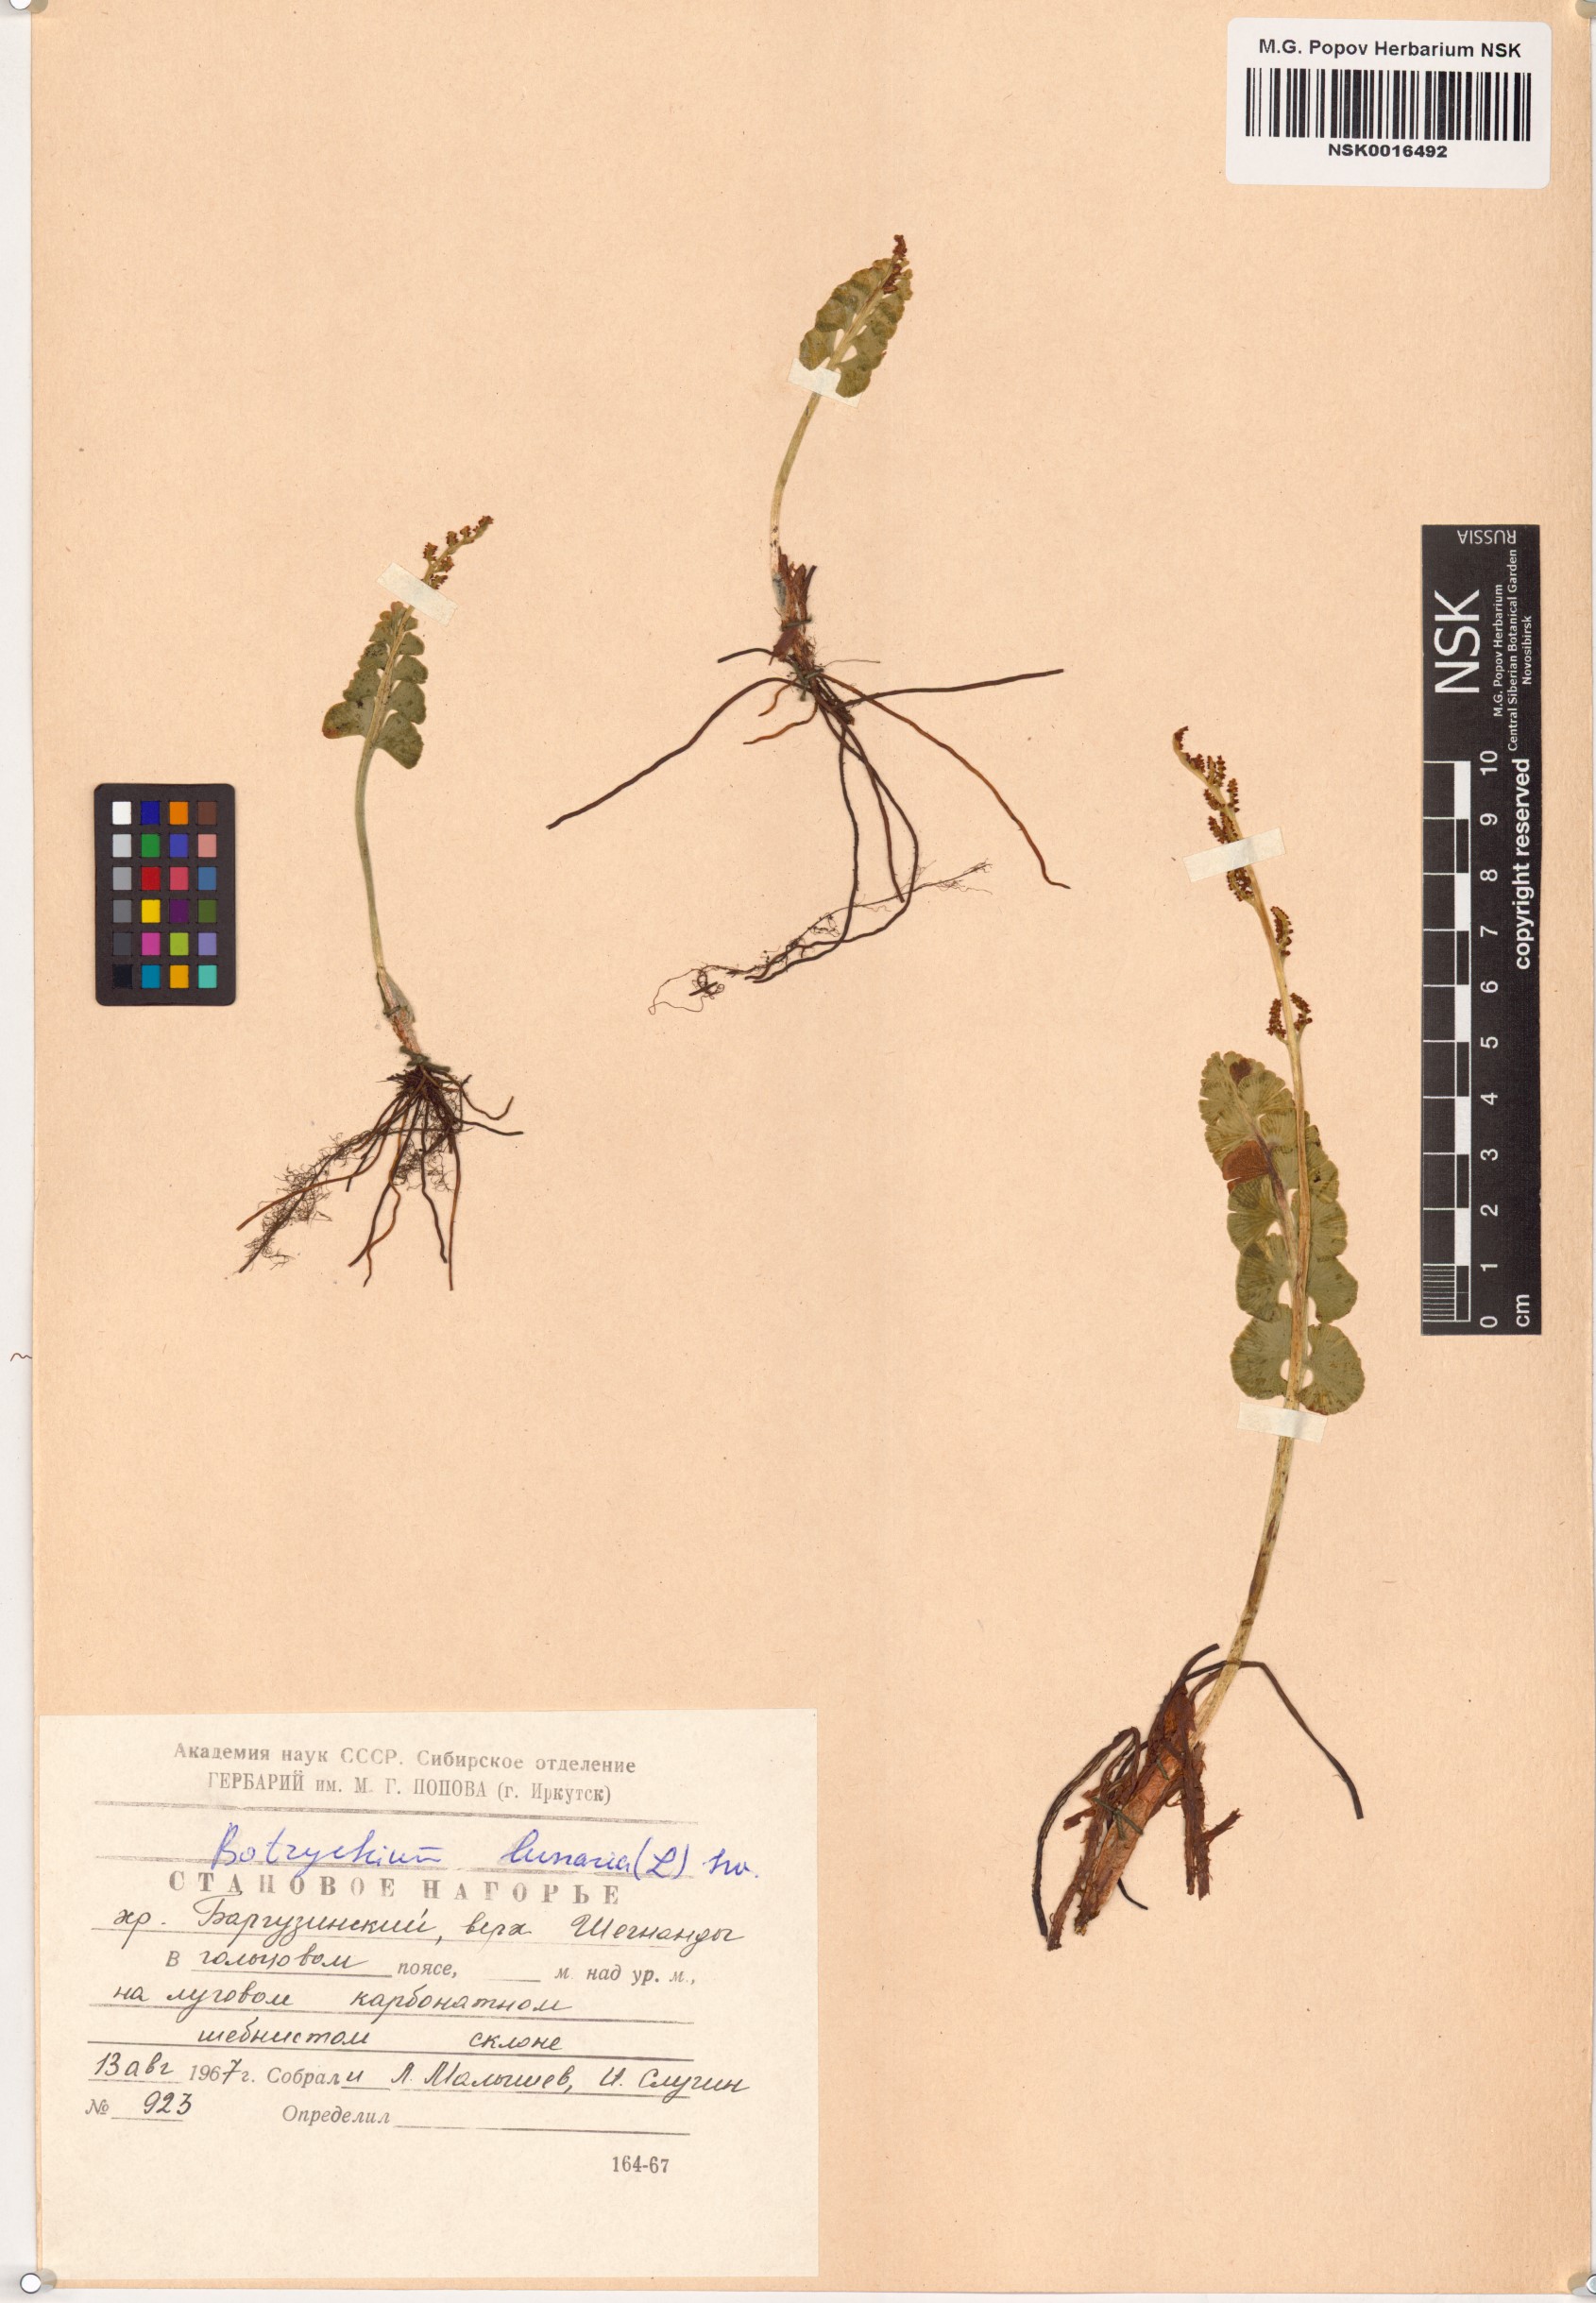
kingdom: Plantae
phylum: Tracheophyta
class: Polypodiopsida
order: Ophioglossales
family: Ophioglossaceae
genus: Botrychium
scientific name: Botrychium lunaria
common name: Moonwort
